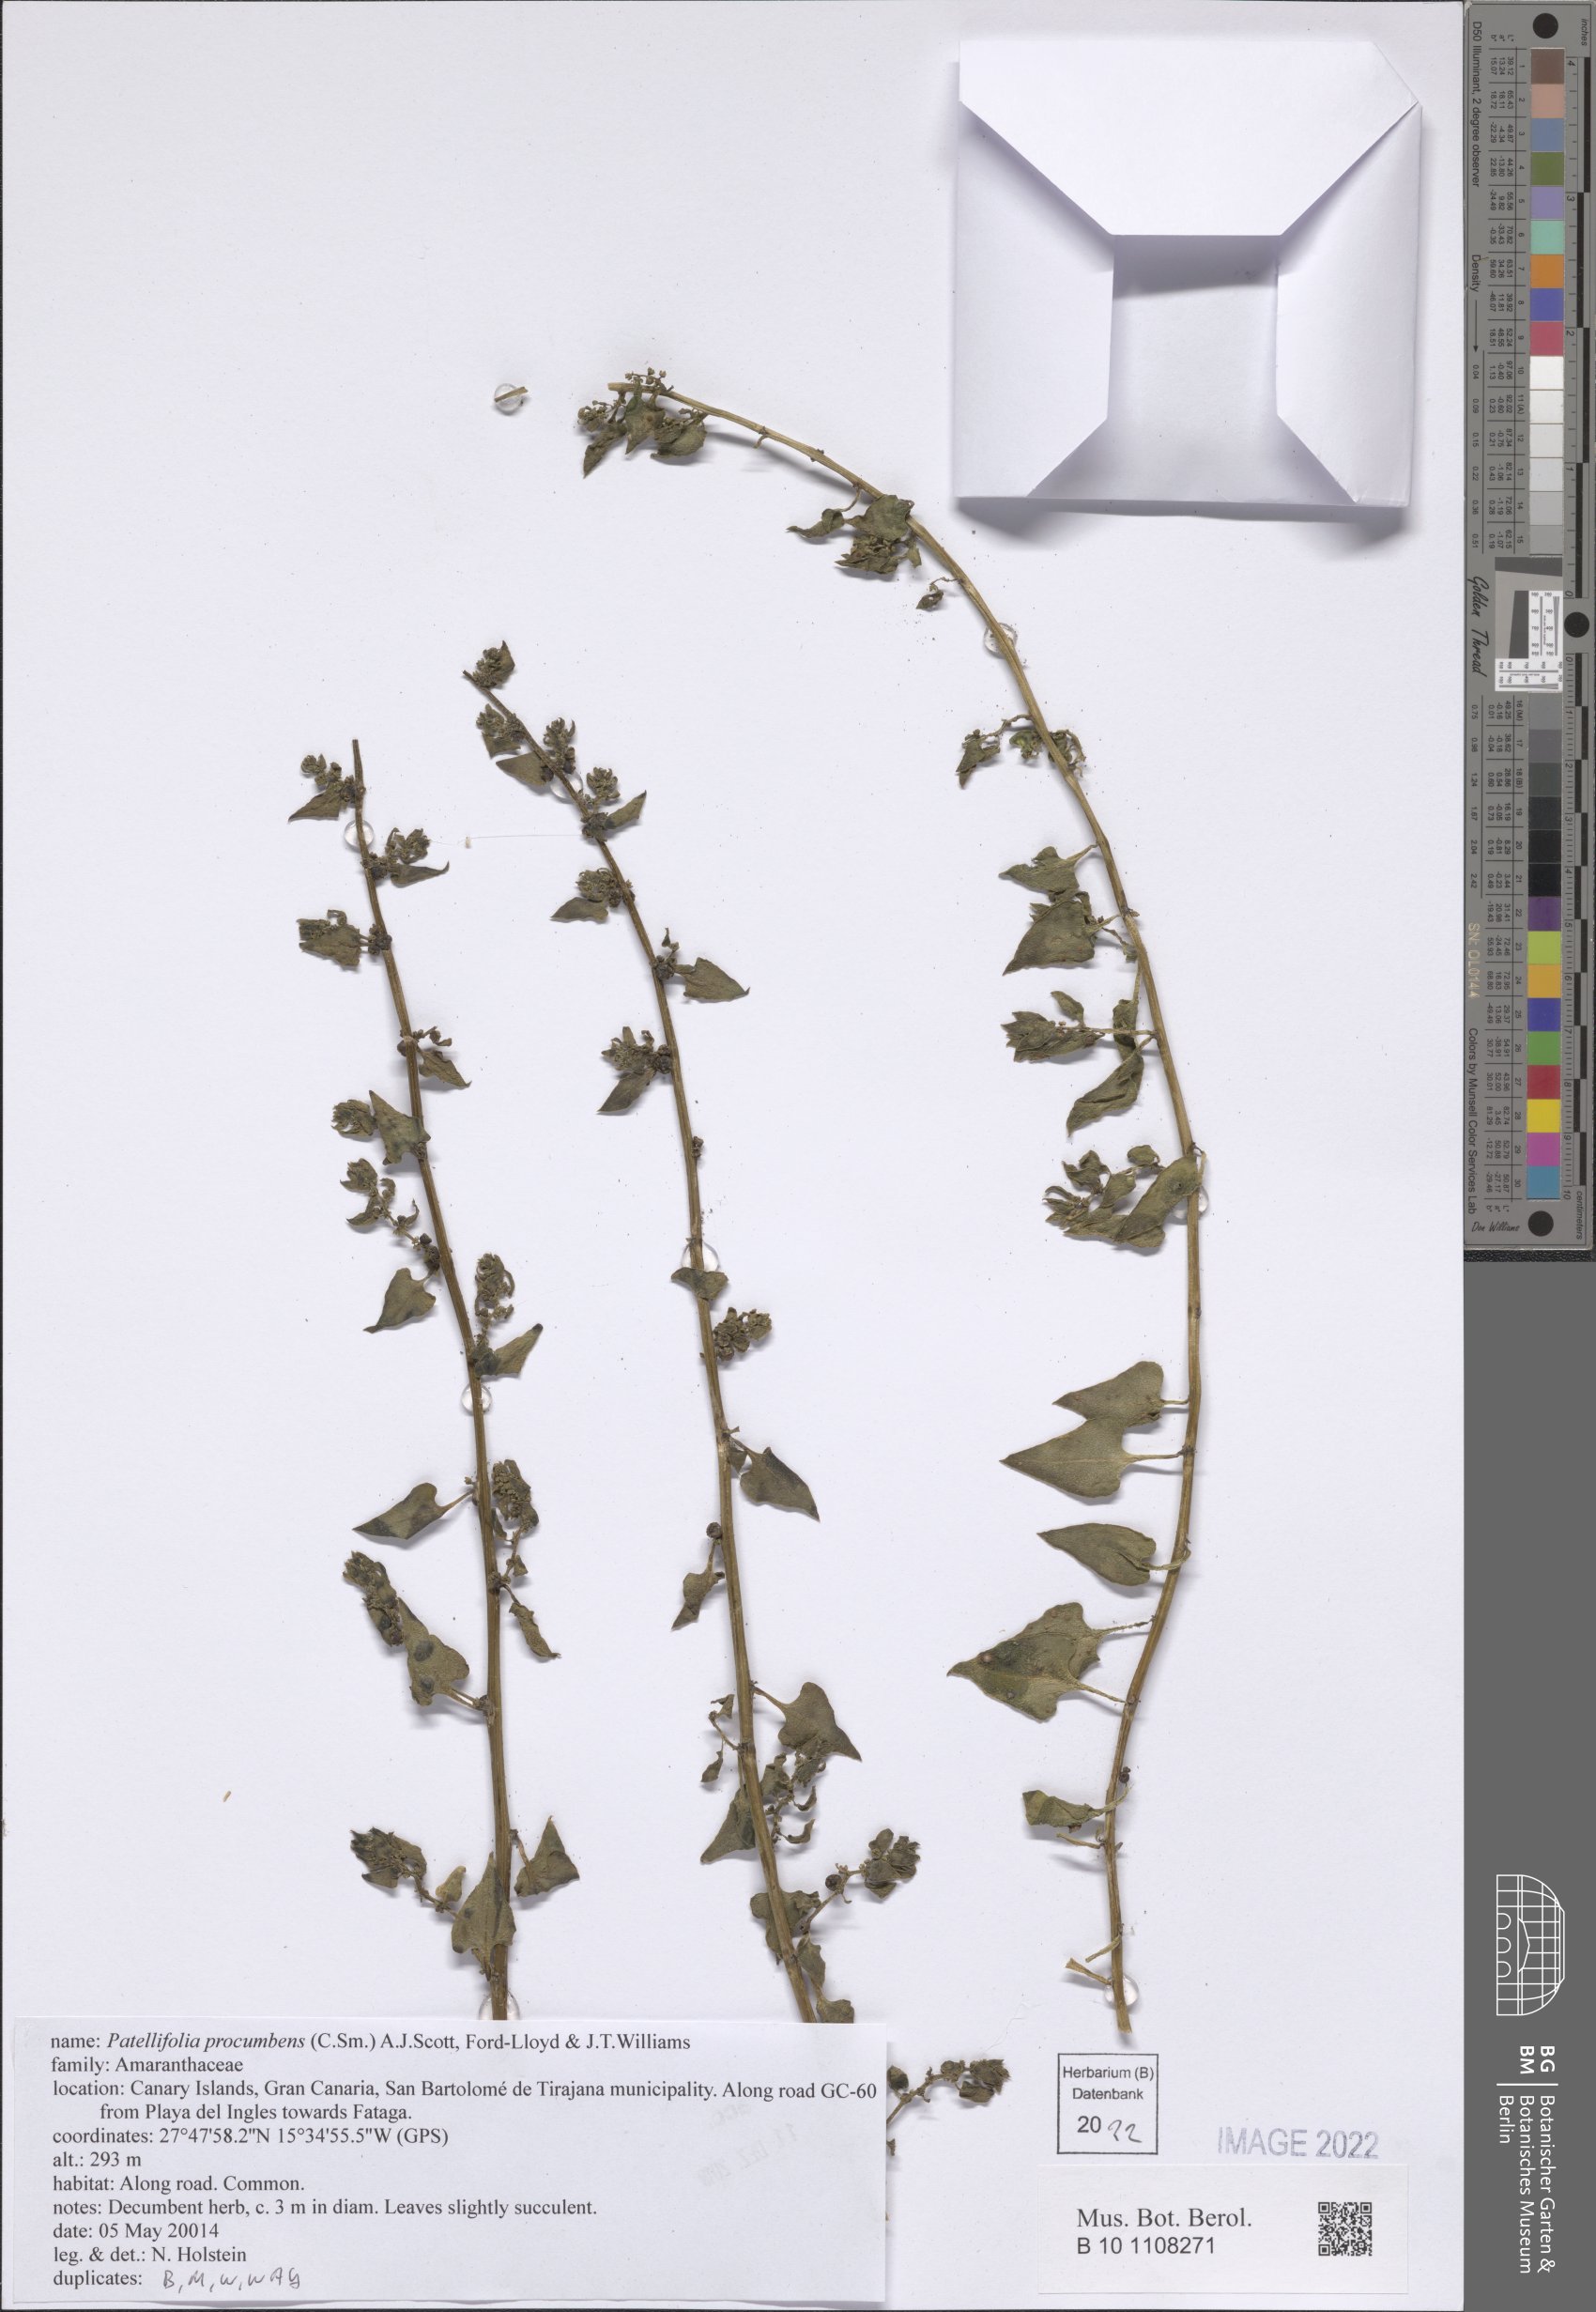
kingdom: Plantae
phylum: Tracheophyta
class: Magnoliopsida
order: Caryophyllales
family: Amaranthaceae
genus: Patellifolia
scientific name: Patellifolia procumbens
